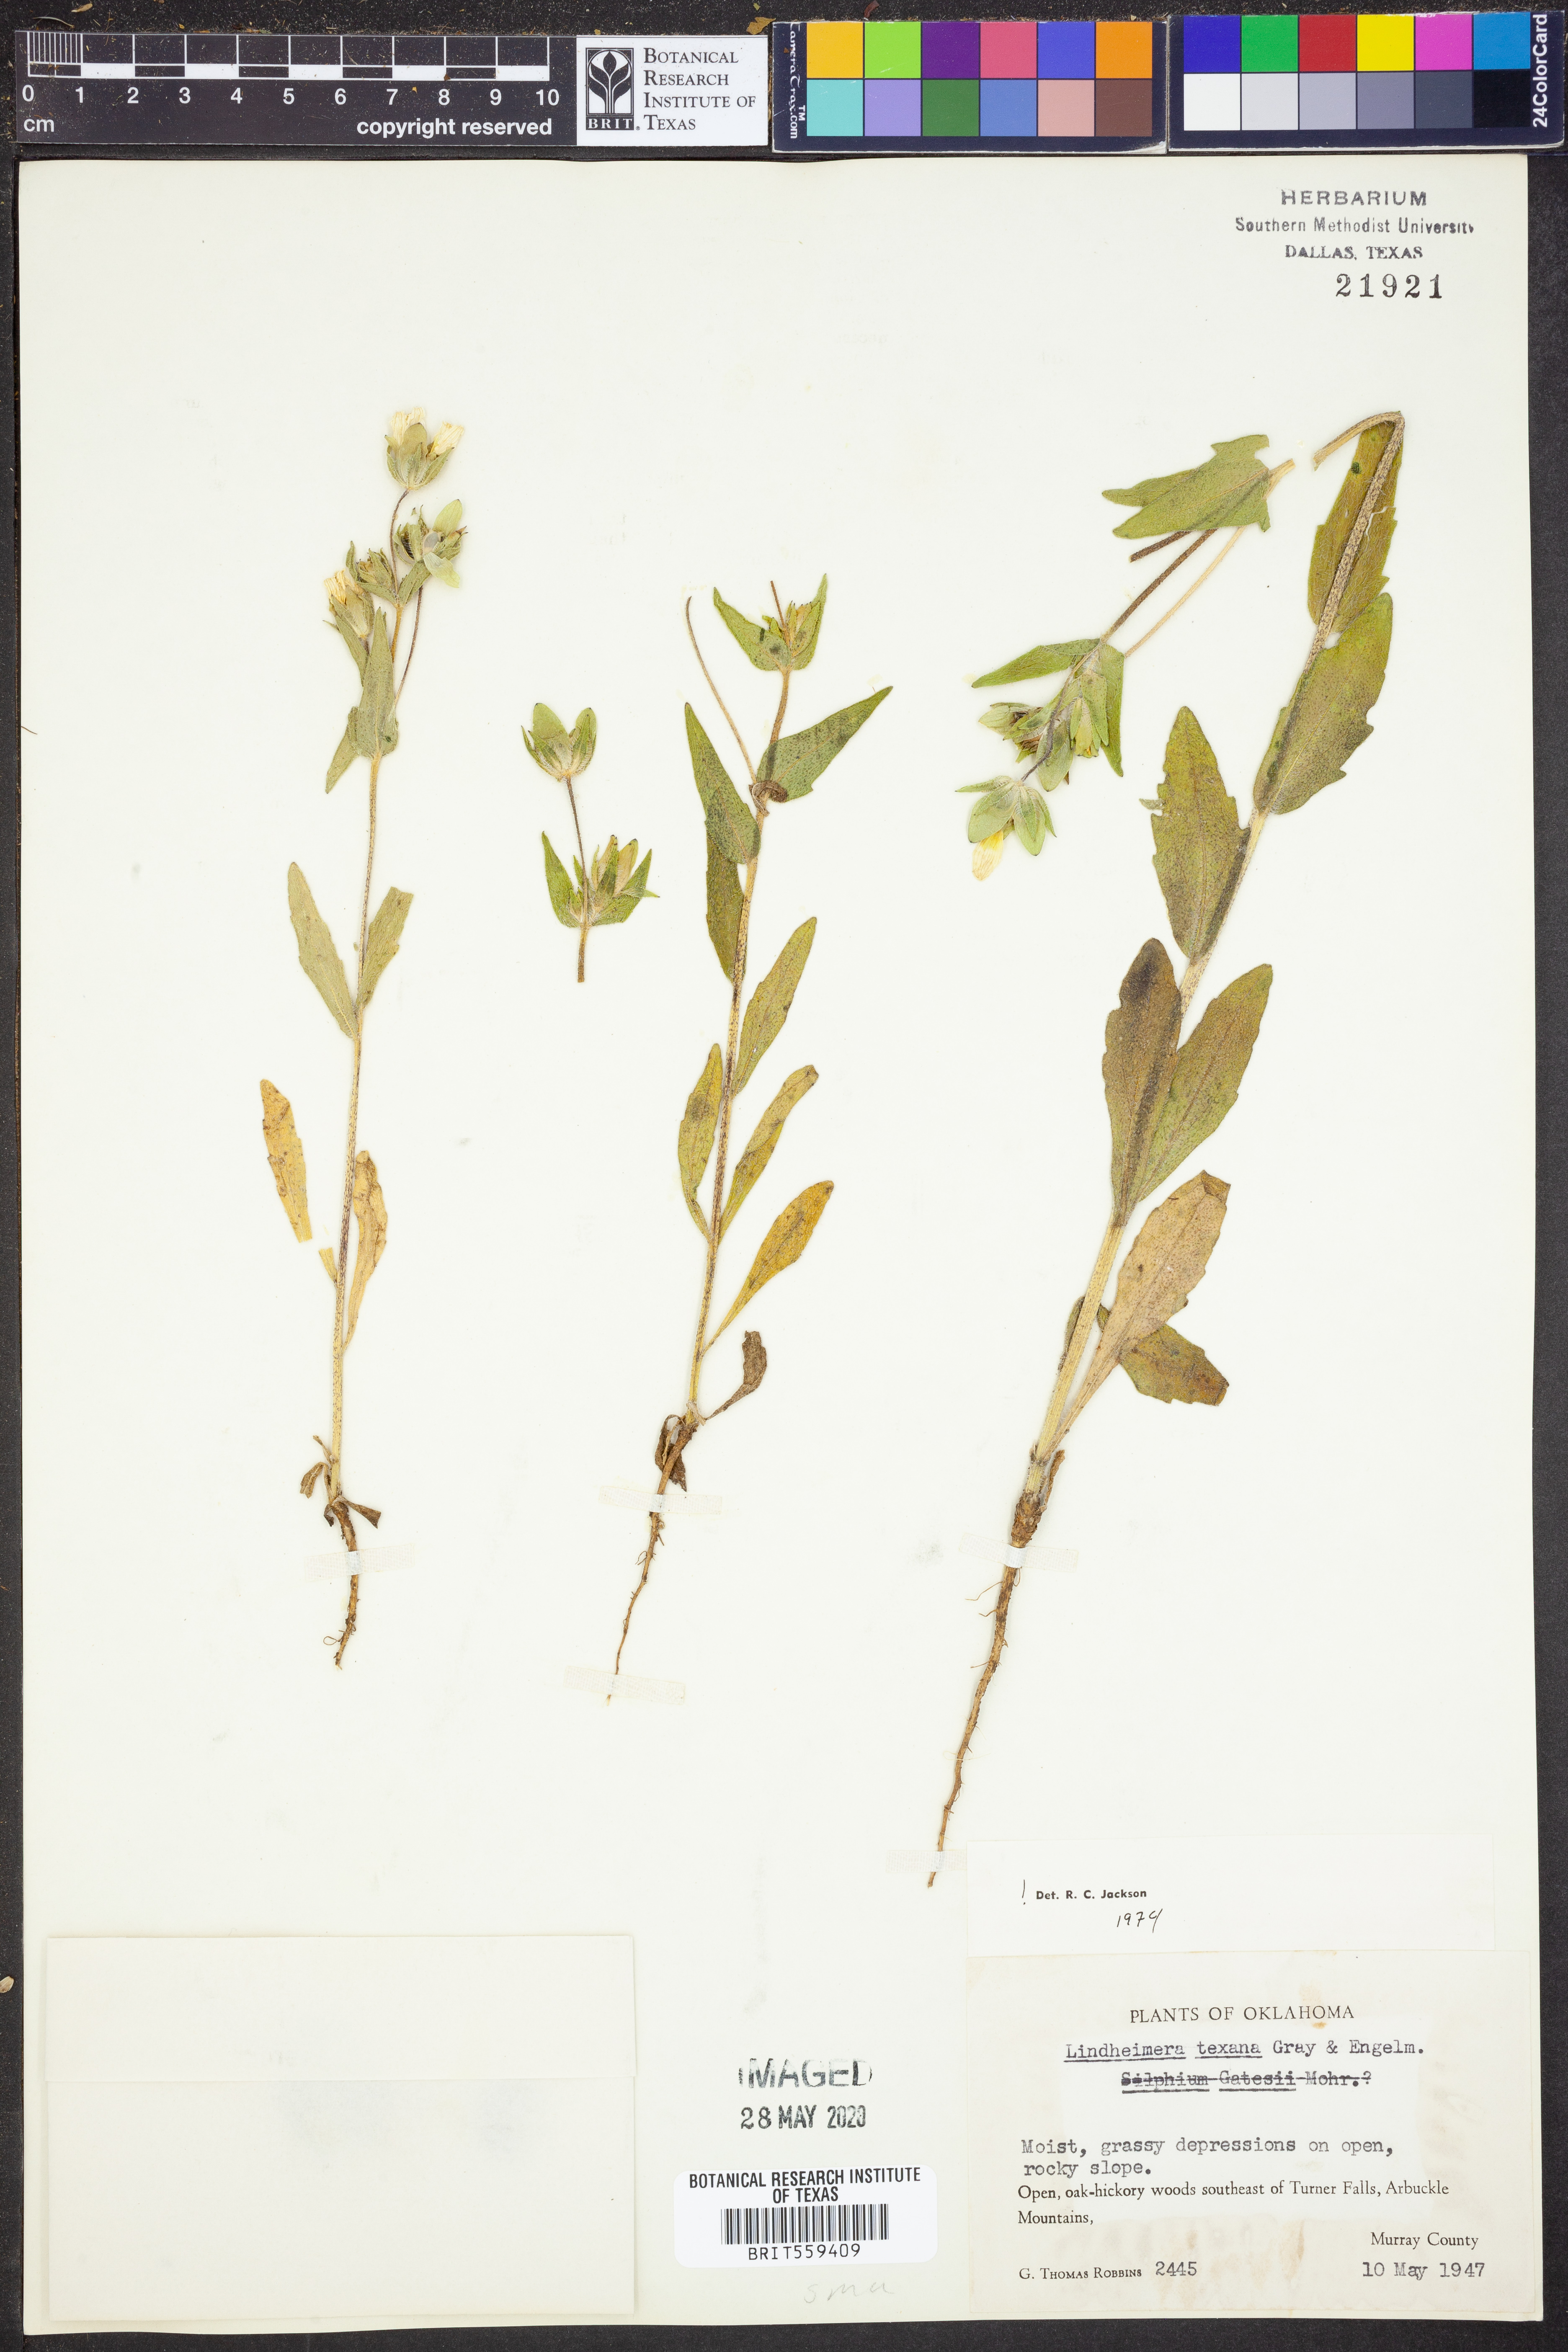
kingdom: Plantae
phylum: Tracheophyta
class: Magnoliopsida
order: Asterales
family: Asteraceae
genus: Lindheimera
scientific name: Lindheimera texana
